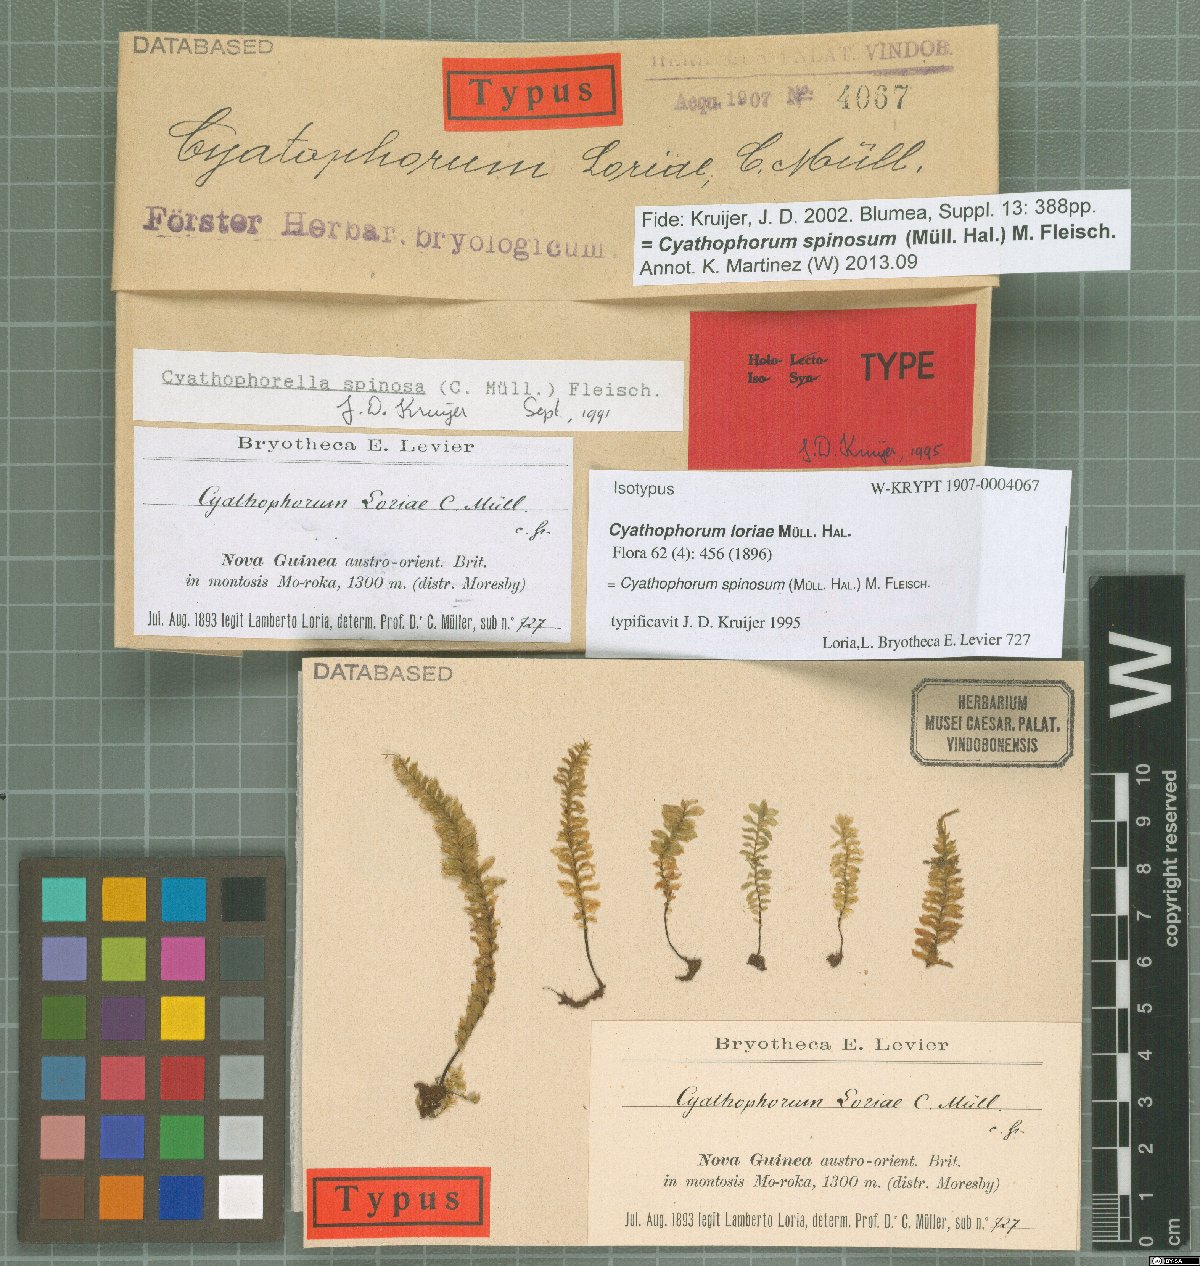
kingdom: Plantae
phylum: Bryophyta
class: Bryopsida
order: Hypopterygiales
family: Hypopterygiaceae
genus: Cyathophorum
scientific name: Cyathophorum spinosum
